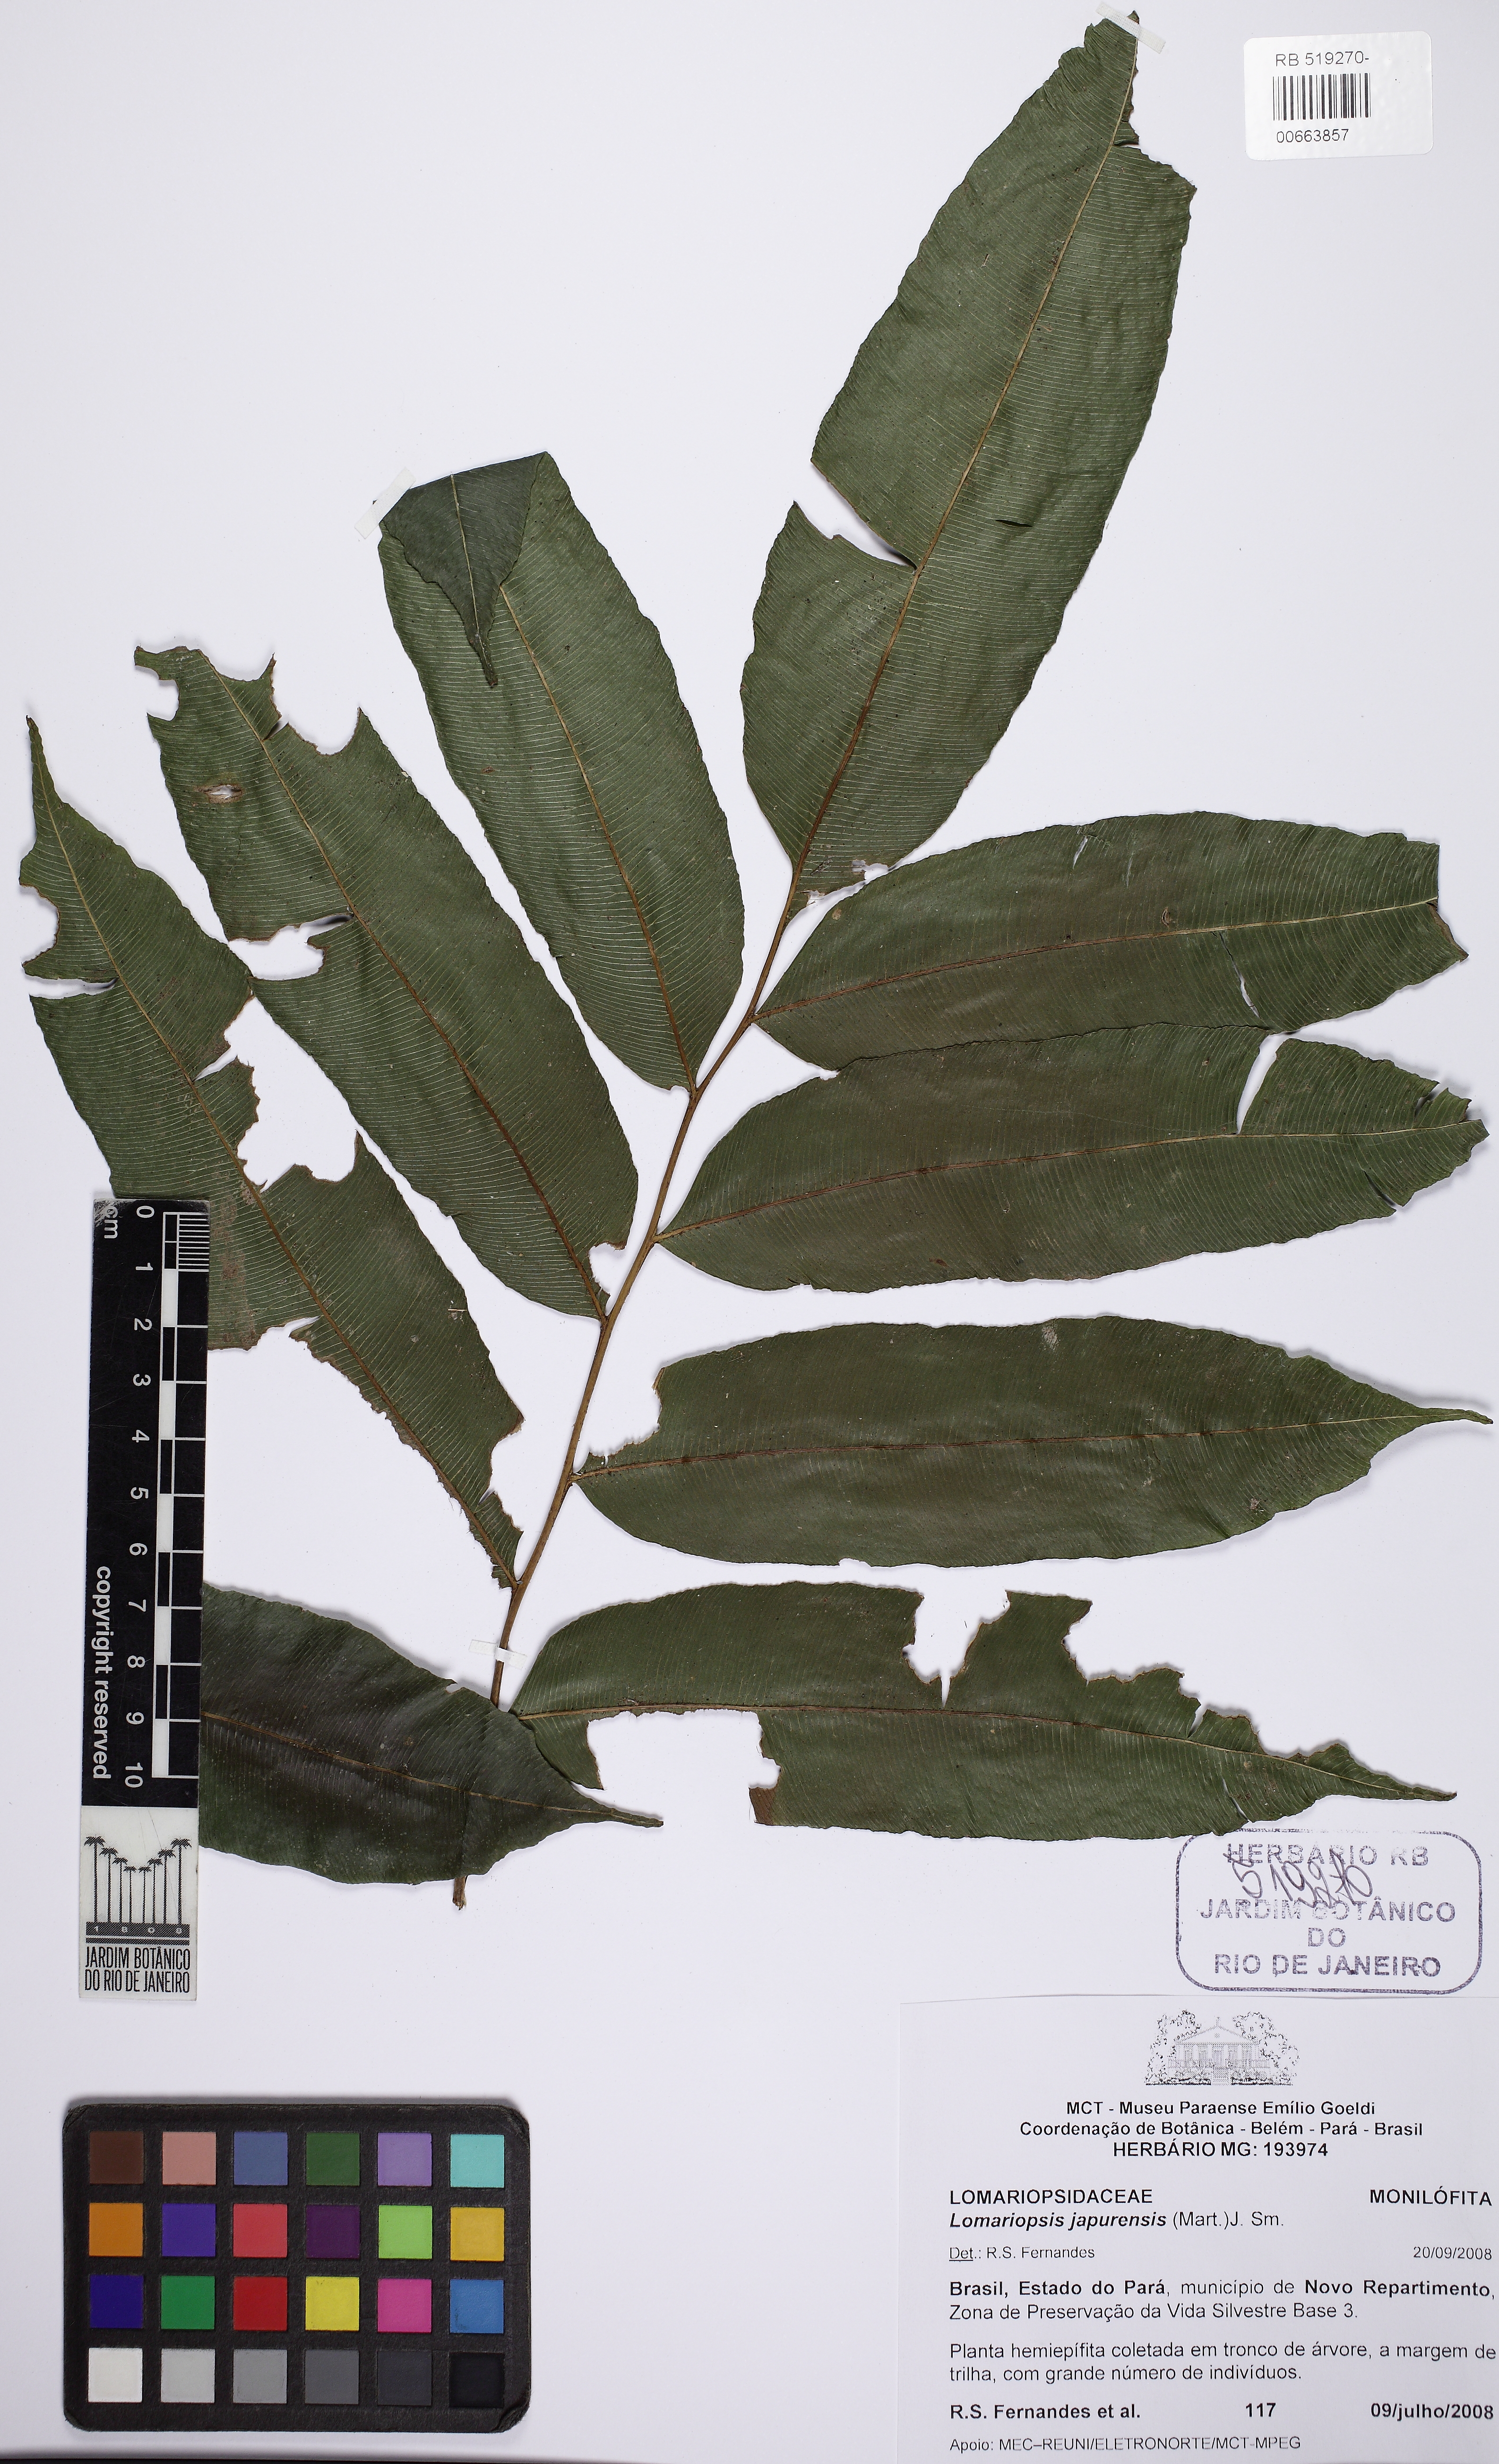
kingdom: Plantae
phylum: Tracheophyta
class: Polypodiopsida
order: Polypodiales
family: Lomariopsidaceae
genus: Lomariopsis
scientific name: Lomariopsis japurensis
